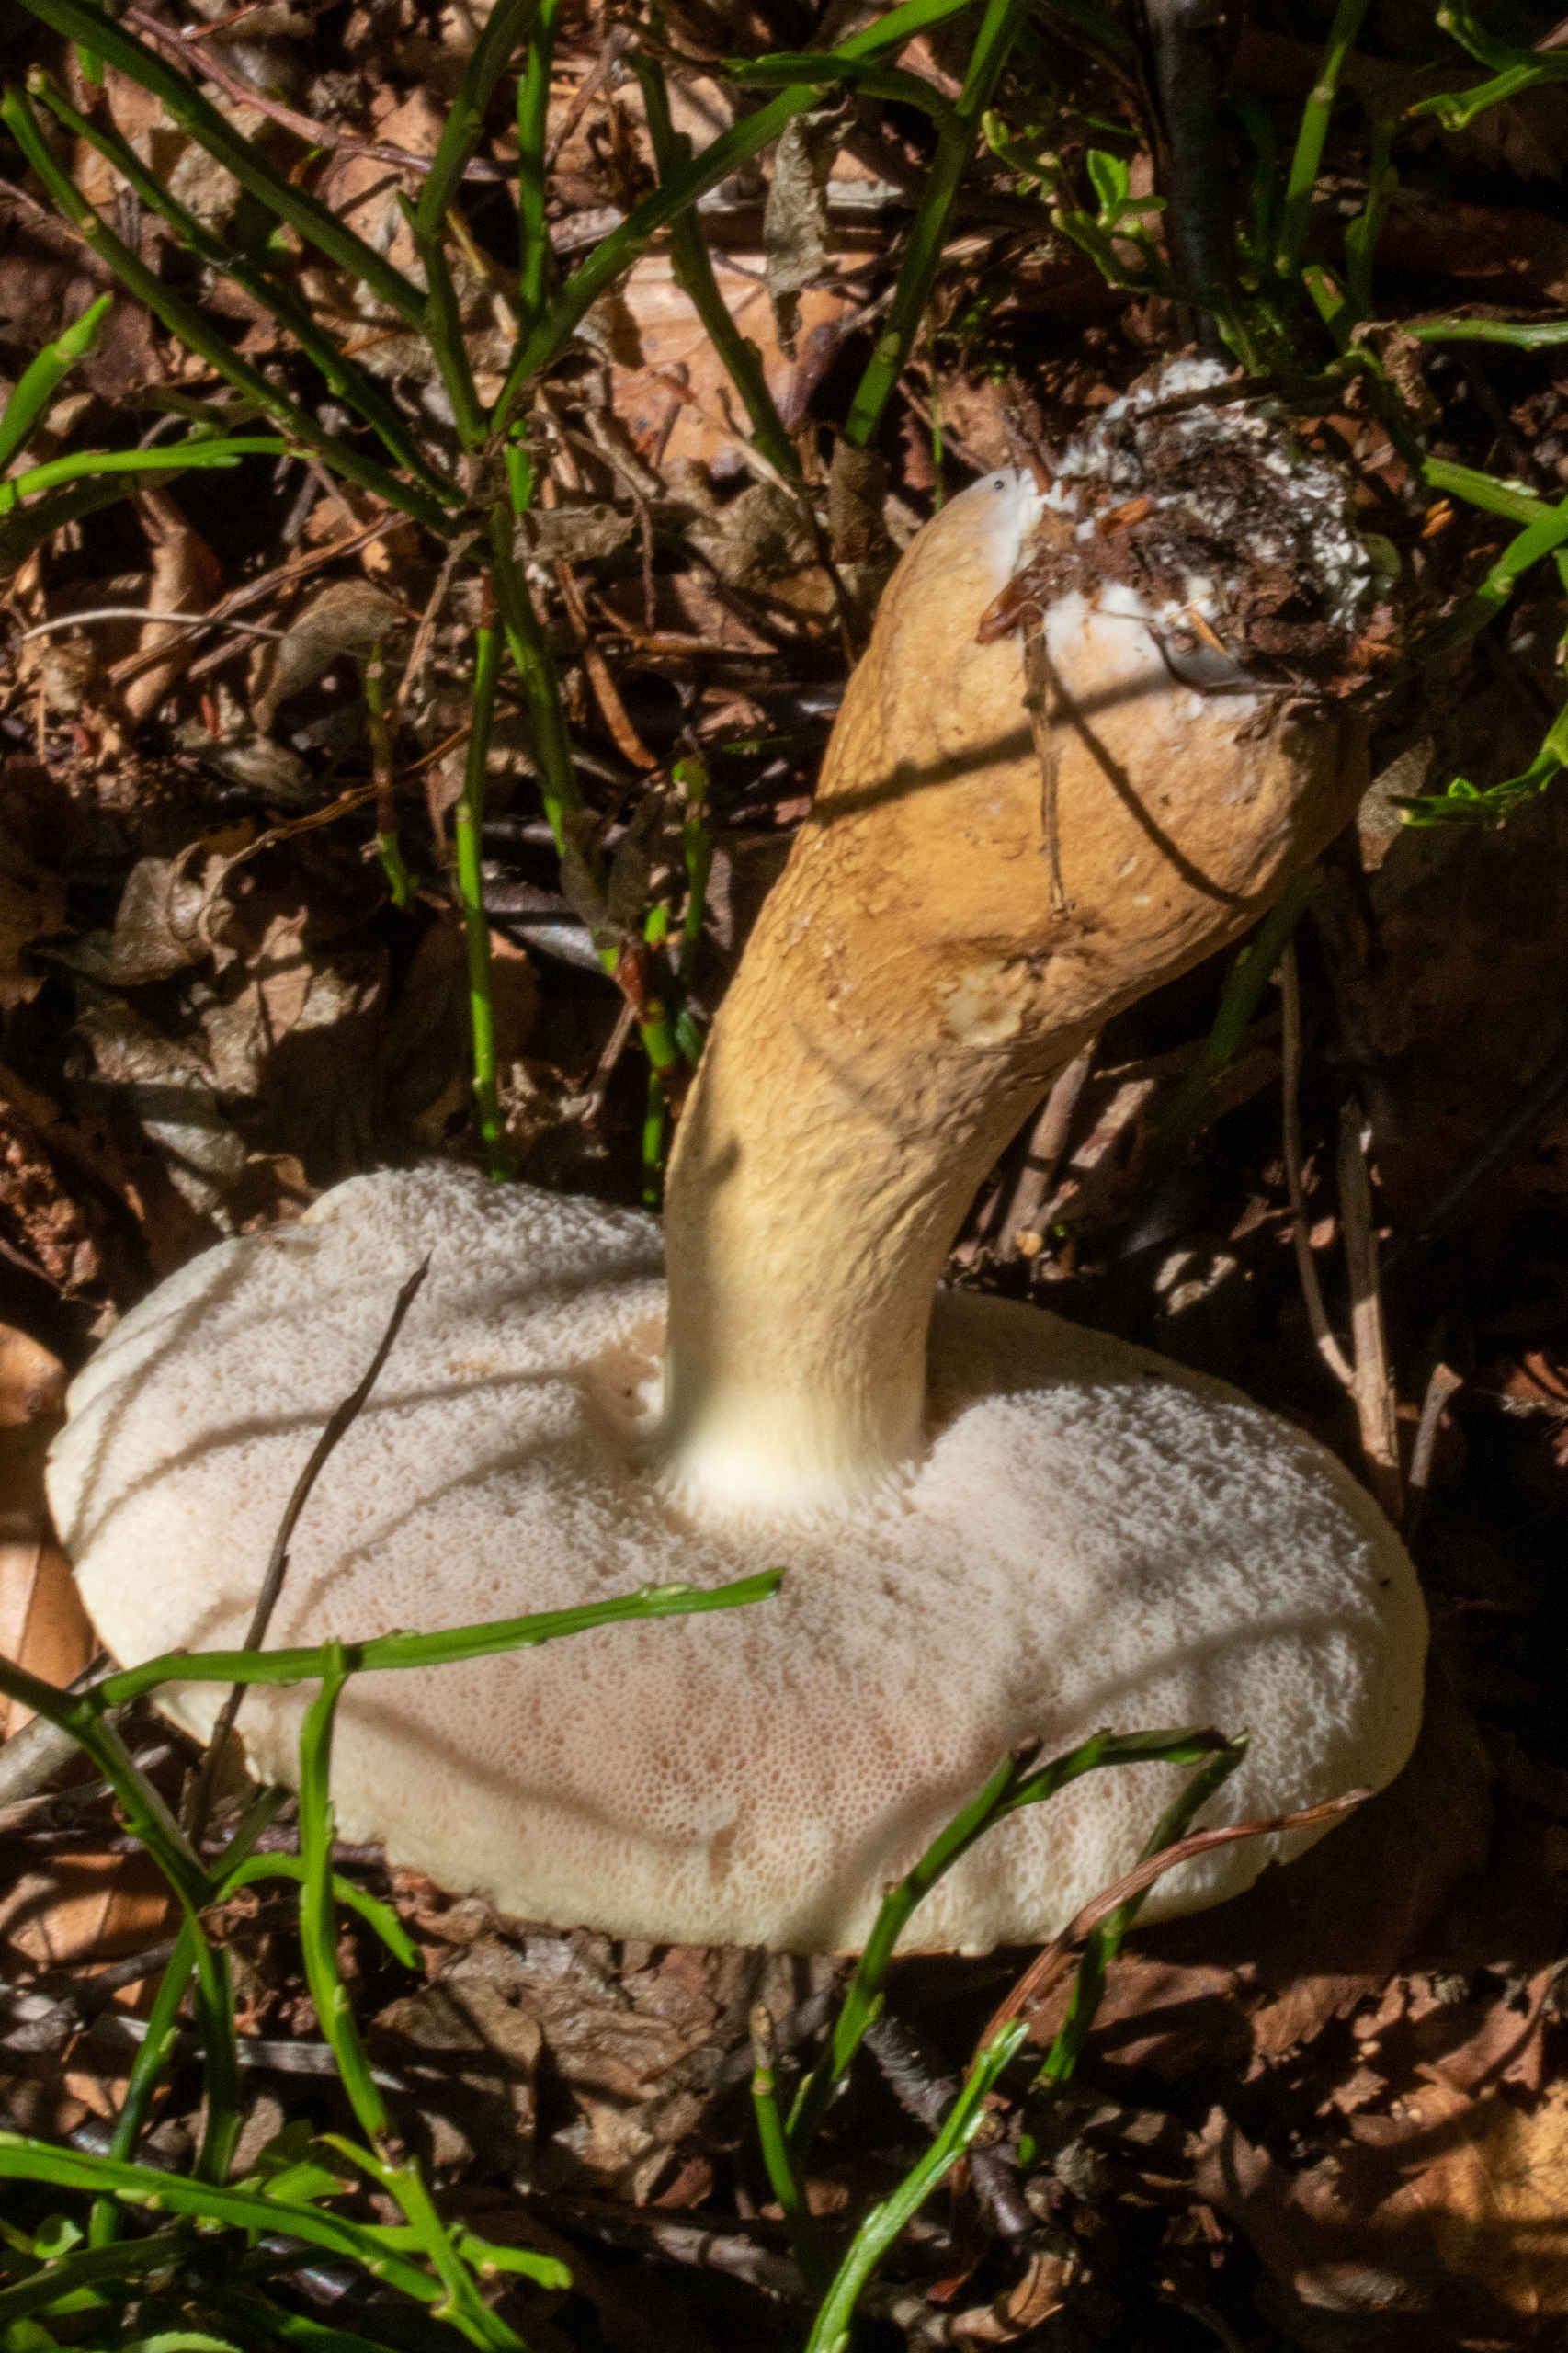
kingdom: Fungi
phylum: Basidiomycota
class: Agaricomycetes
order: Boletales
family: Boletaceae
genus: Tylopilus
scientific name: Tylopilus felleus
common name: Galderørhat
